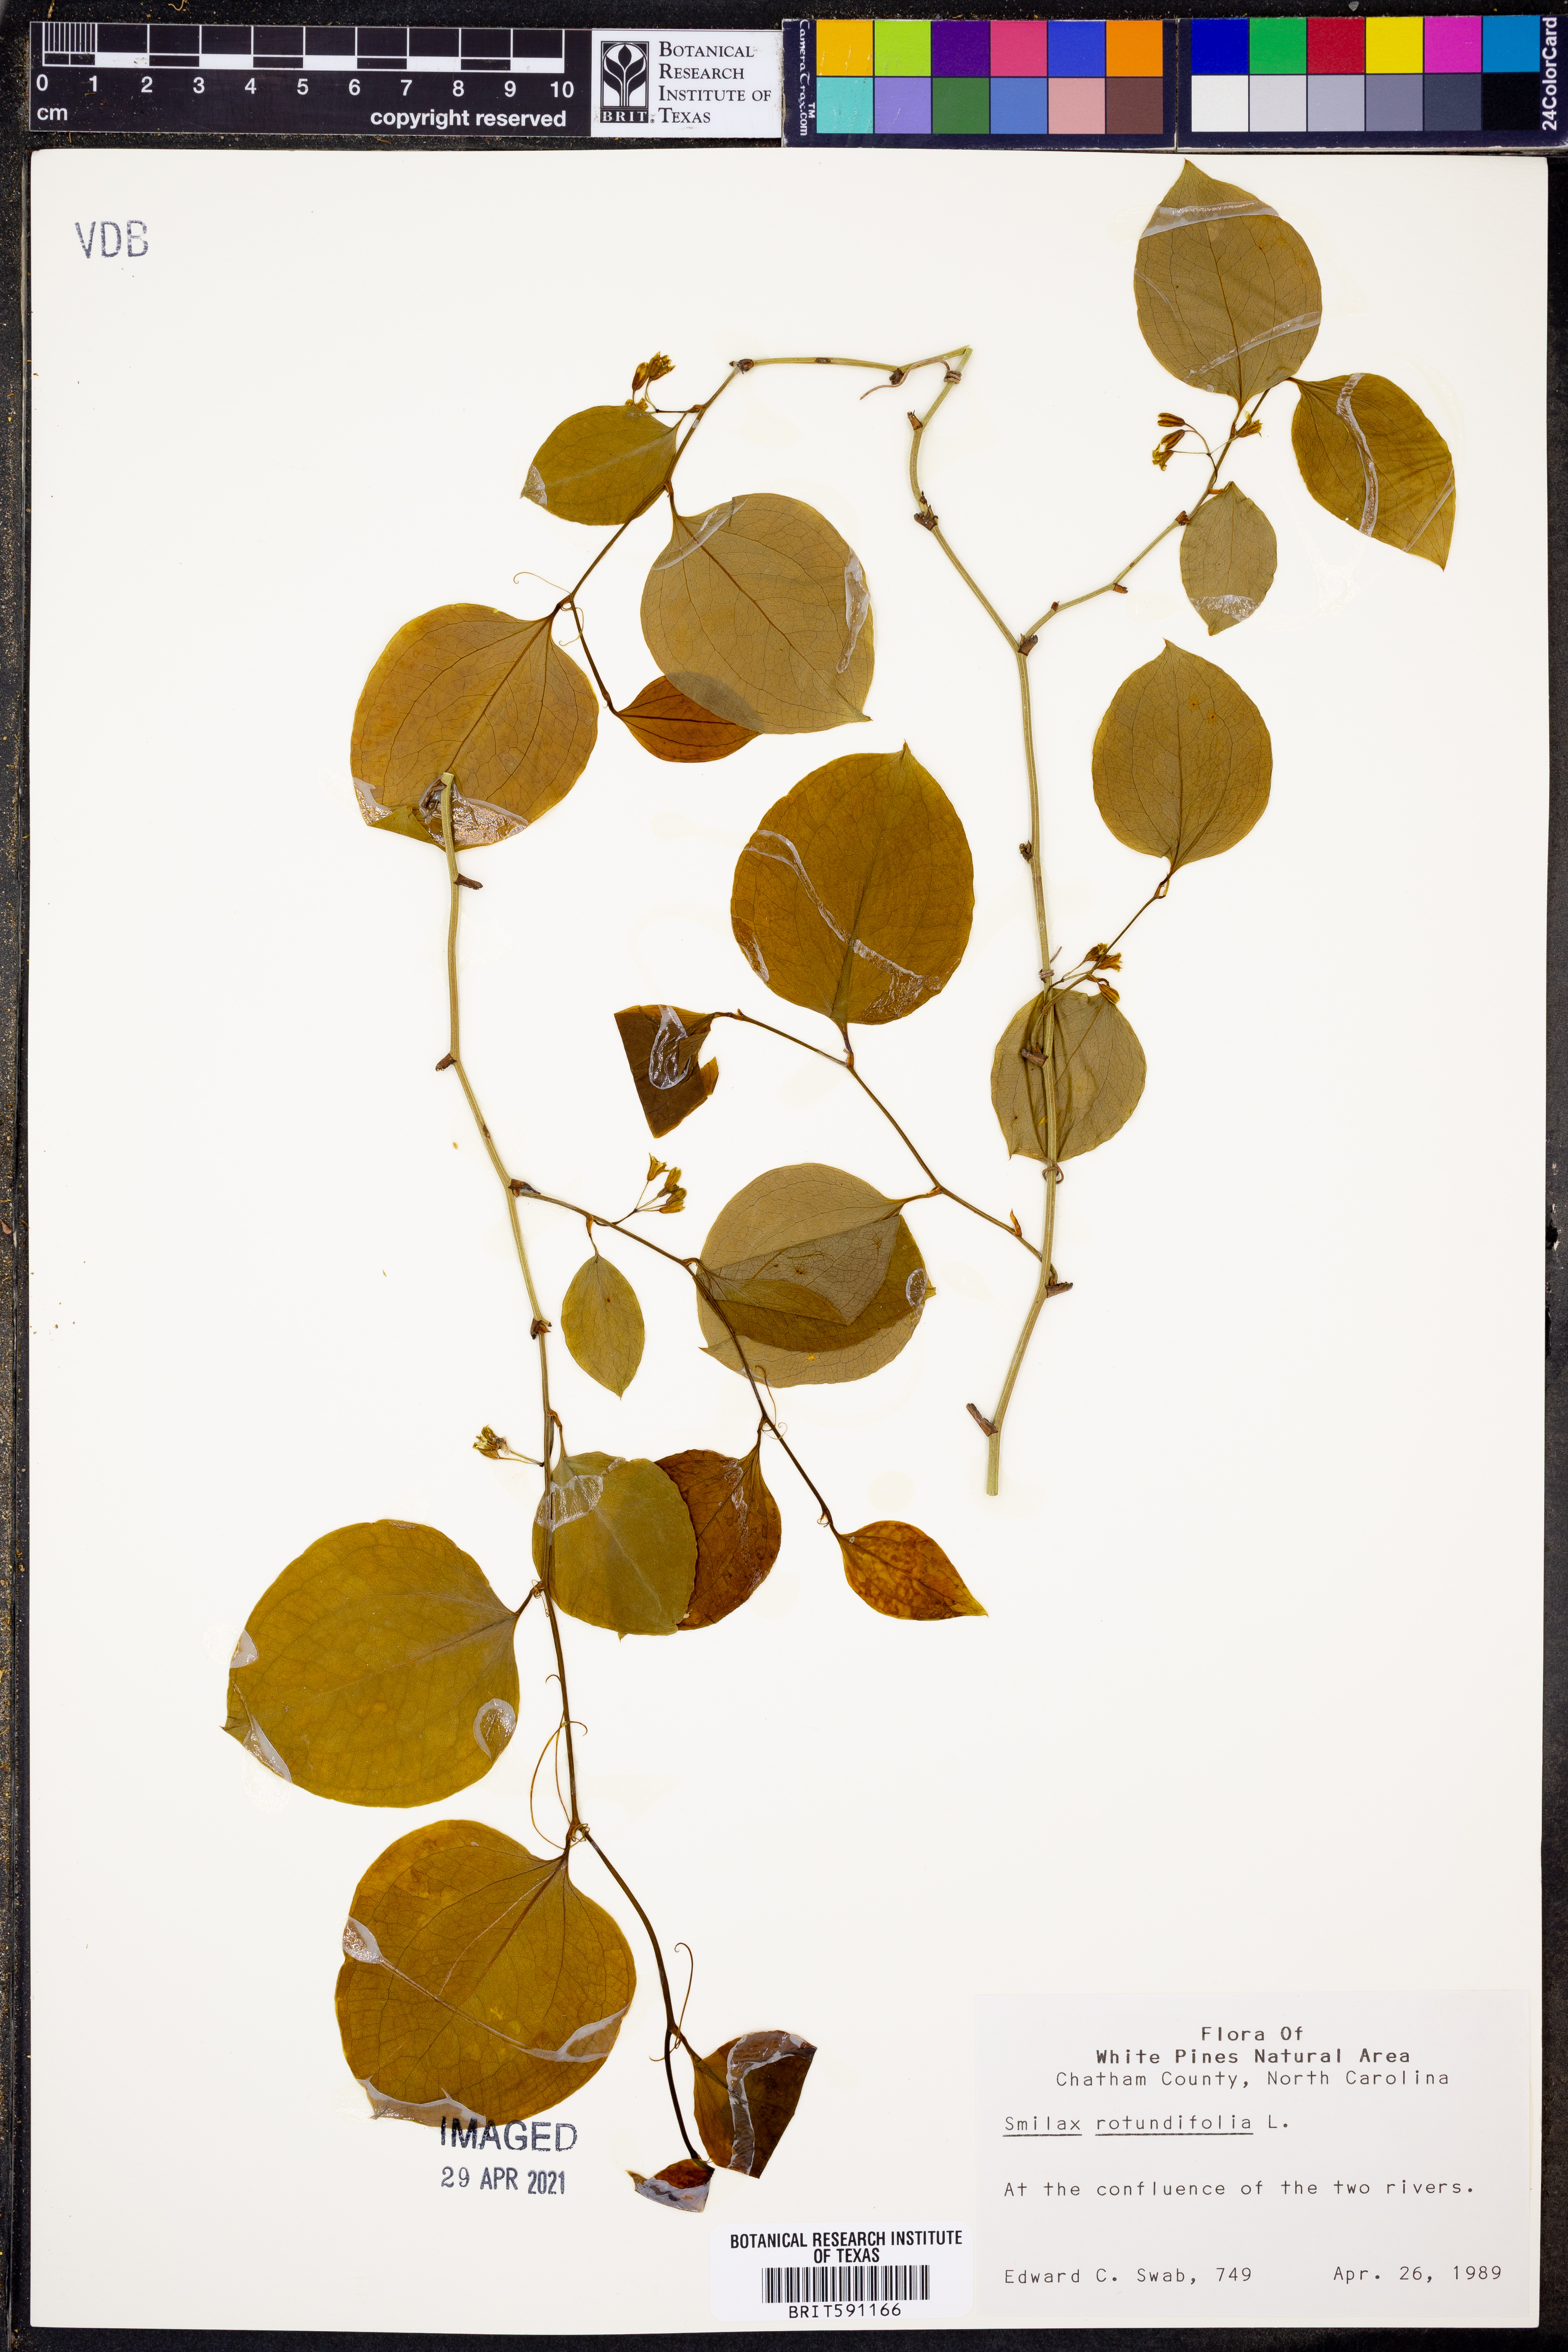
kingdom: Plantae
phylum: Tracheophyta
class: Liliopsida
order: Liliales
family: Smilacaceae
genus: Smilax
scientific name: Smilax rotundifolia
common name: Bullbriar
